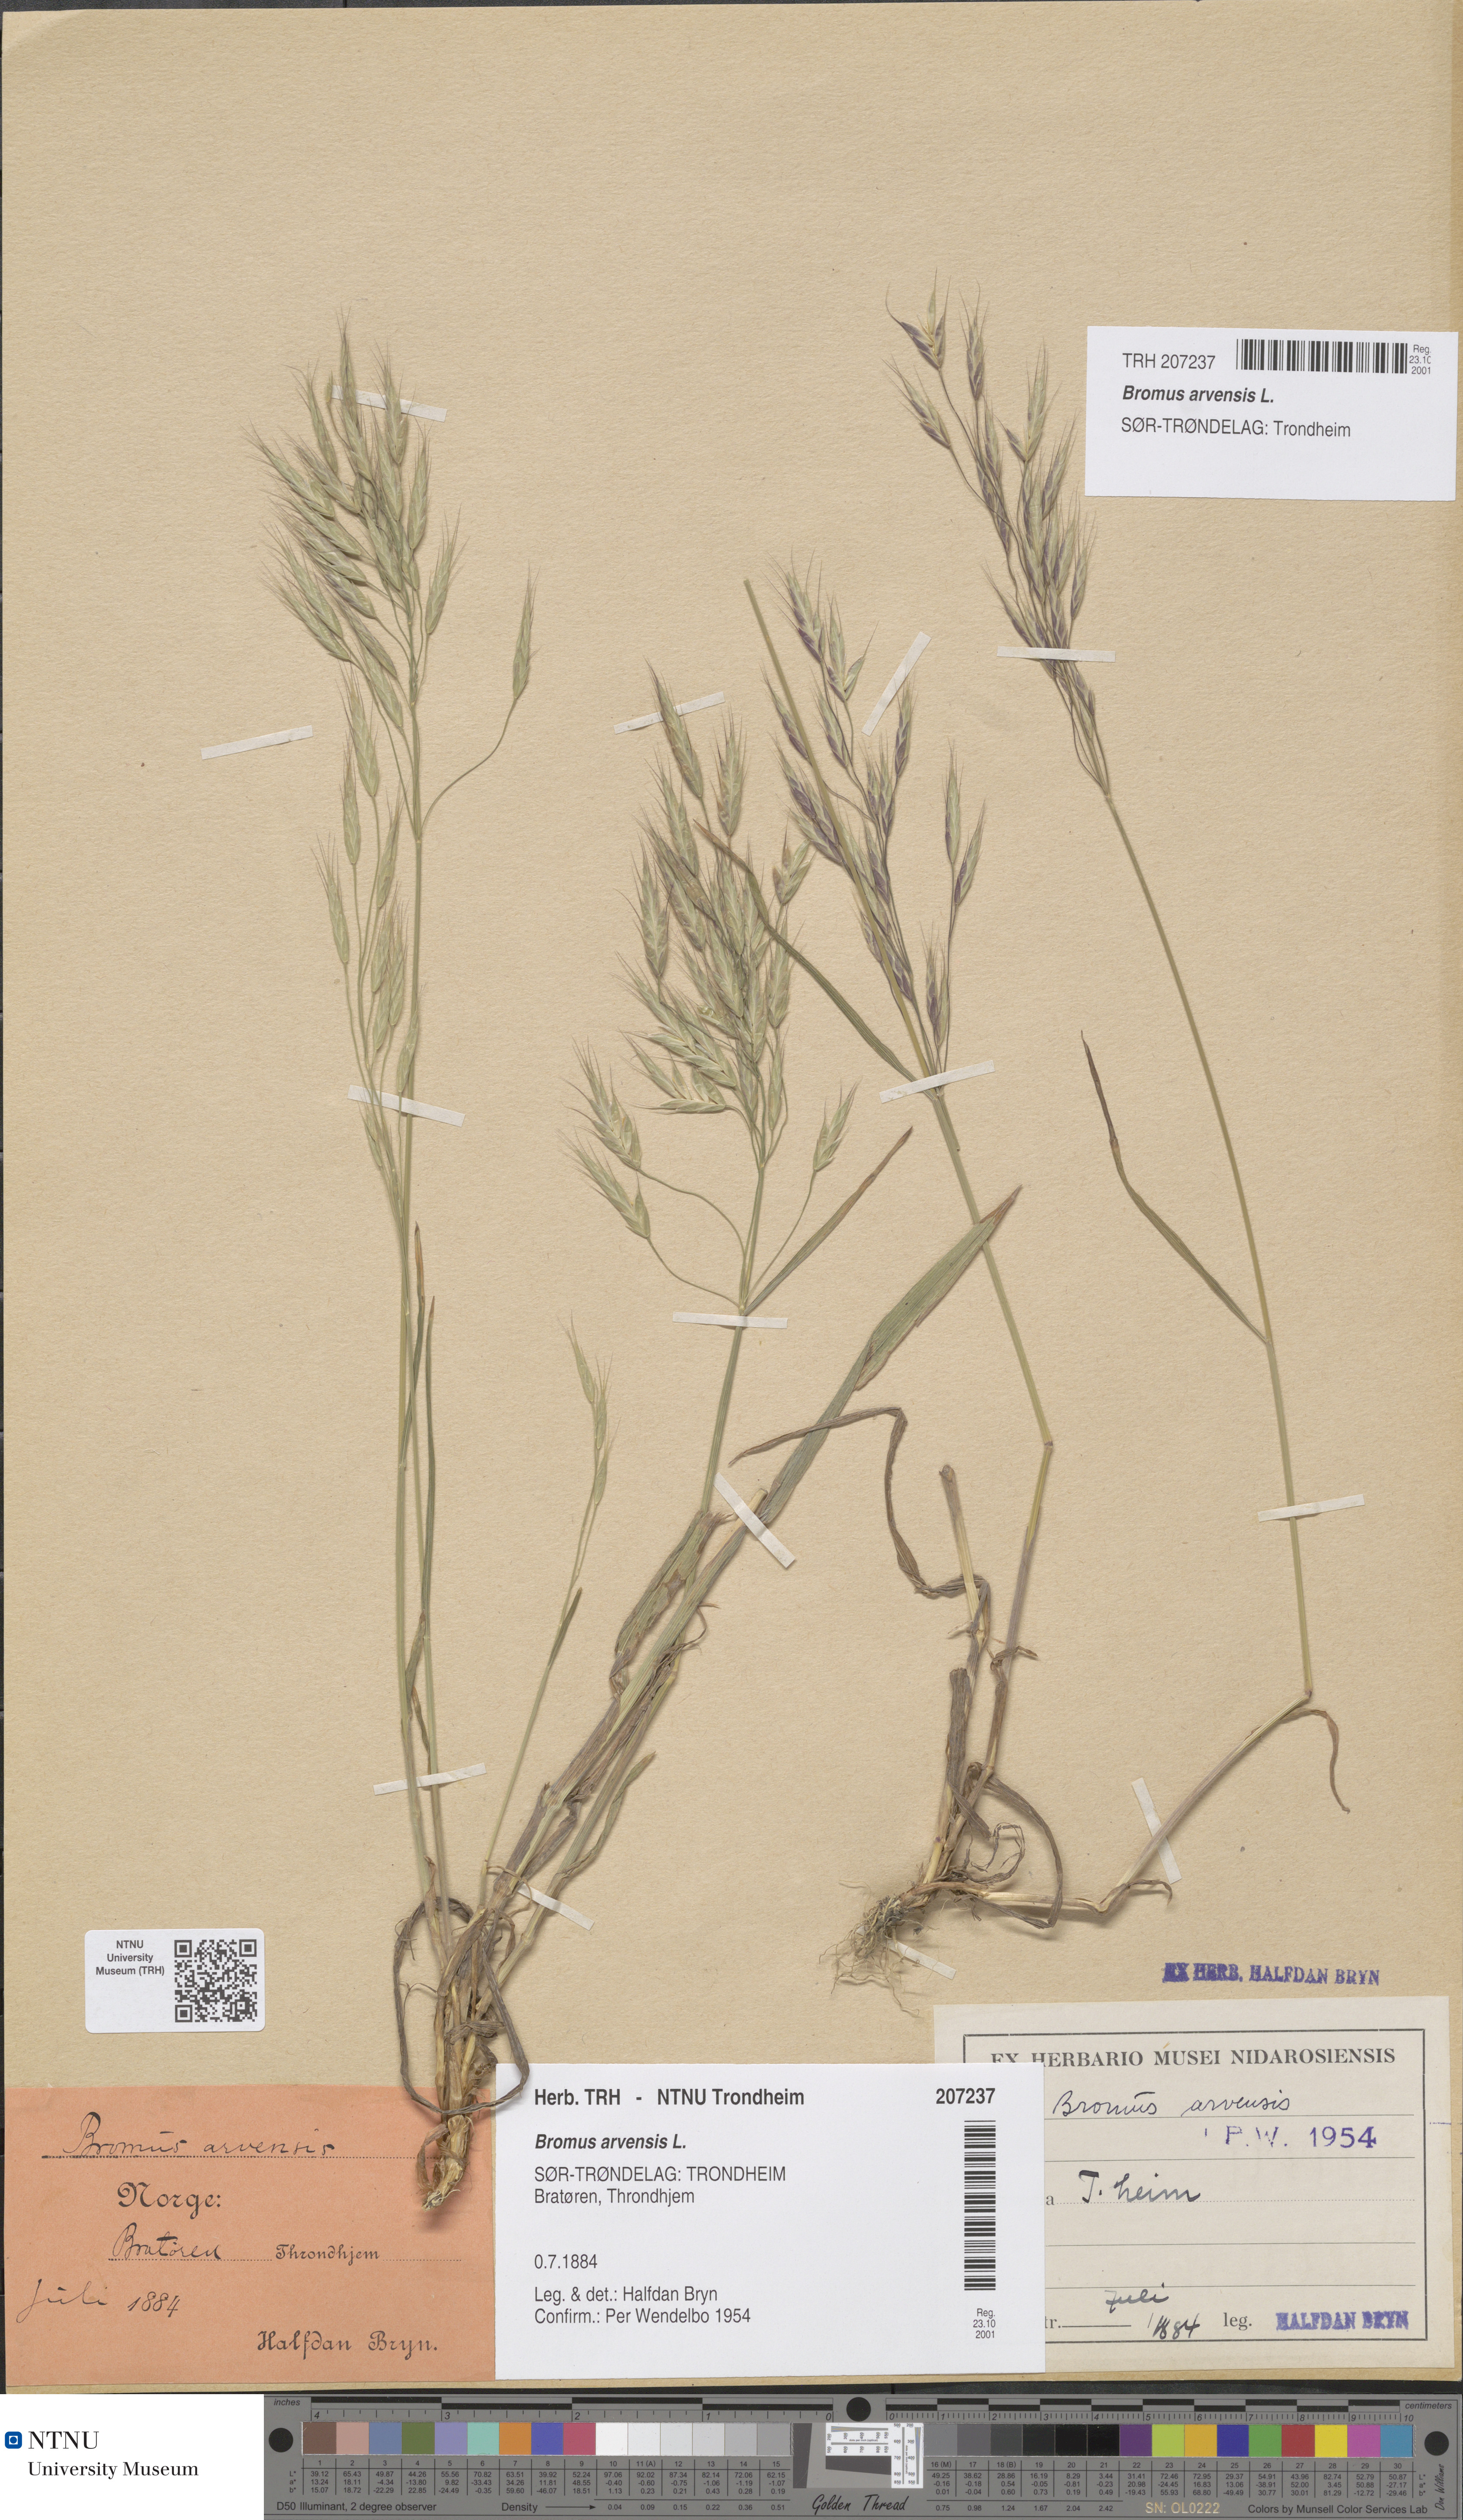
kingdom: Plantae
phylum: Tracheophyta
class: Liliopsida
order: Poales
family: Poaceae
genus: Bromus
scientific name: Bromus arvensis
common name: Field brome
